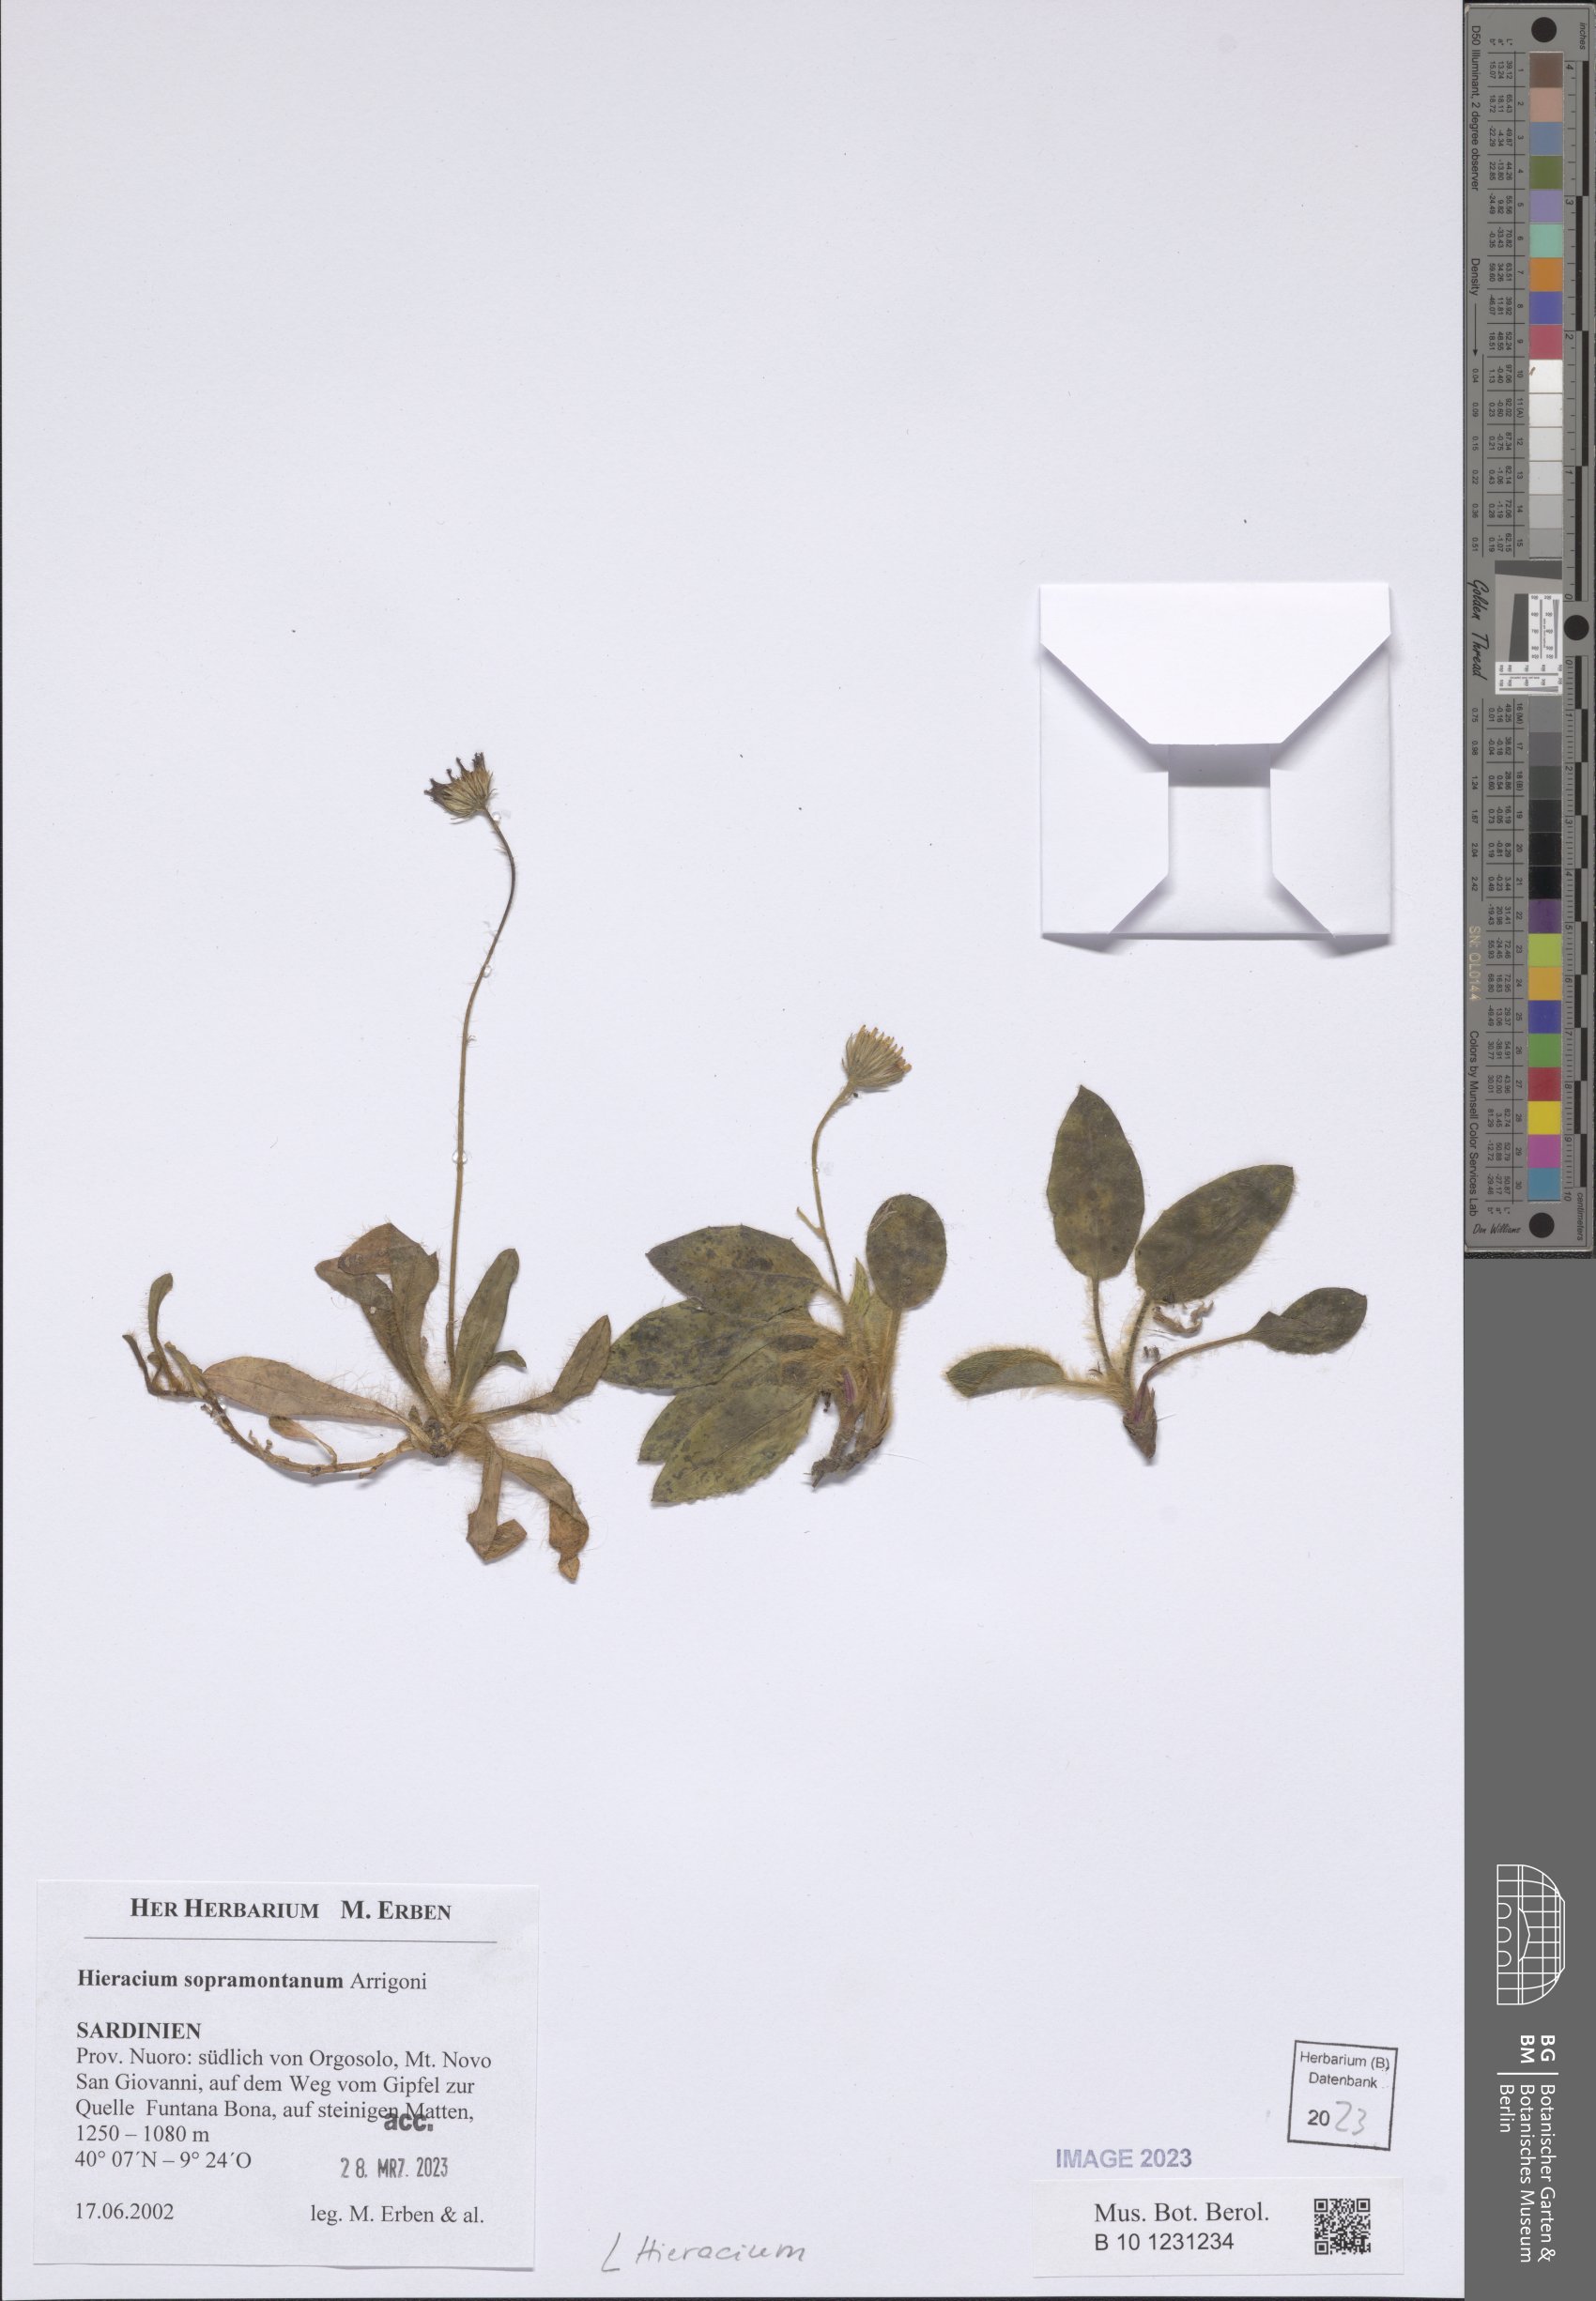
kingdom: Plantae
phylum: Tracheophyta
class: Magnoliopsida
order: Asterales
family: Asteraceae
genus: Hieracium
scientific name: Hieracium
